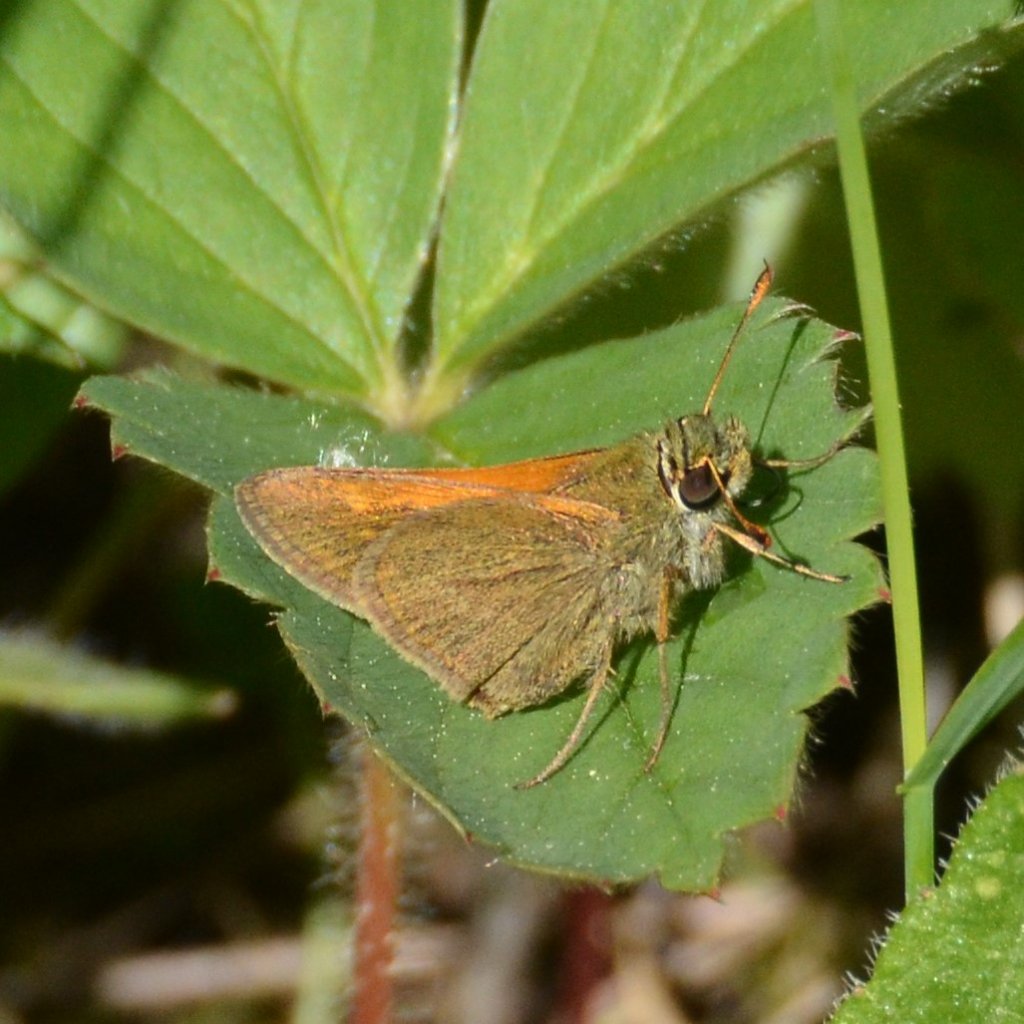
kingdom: Animalia
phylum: Arthropoda
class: Insecta
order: Lepidoptera
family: Hesperiidae
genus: Polites
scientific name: Polites themistocles
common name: Tawny-edged Skipper
